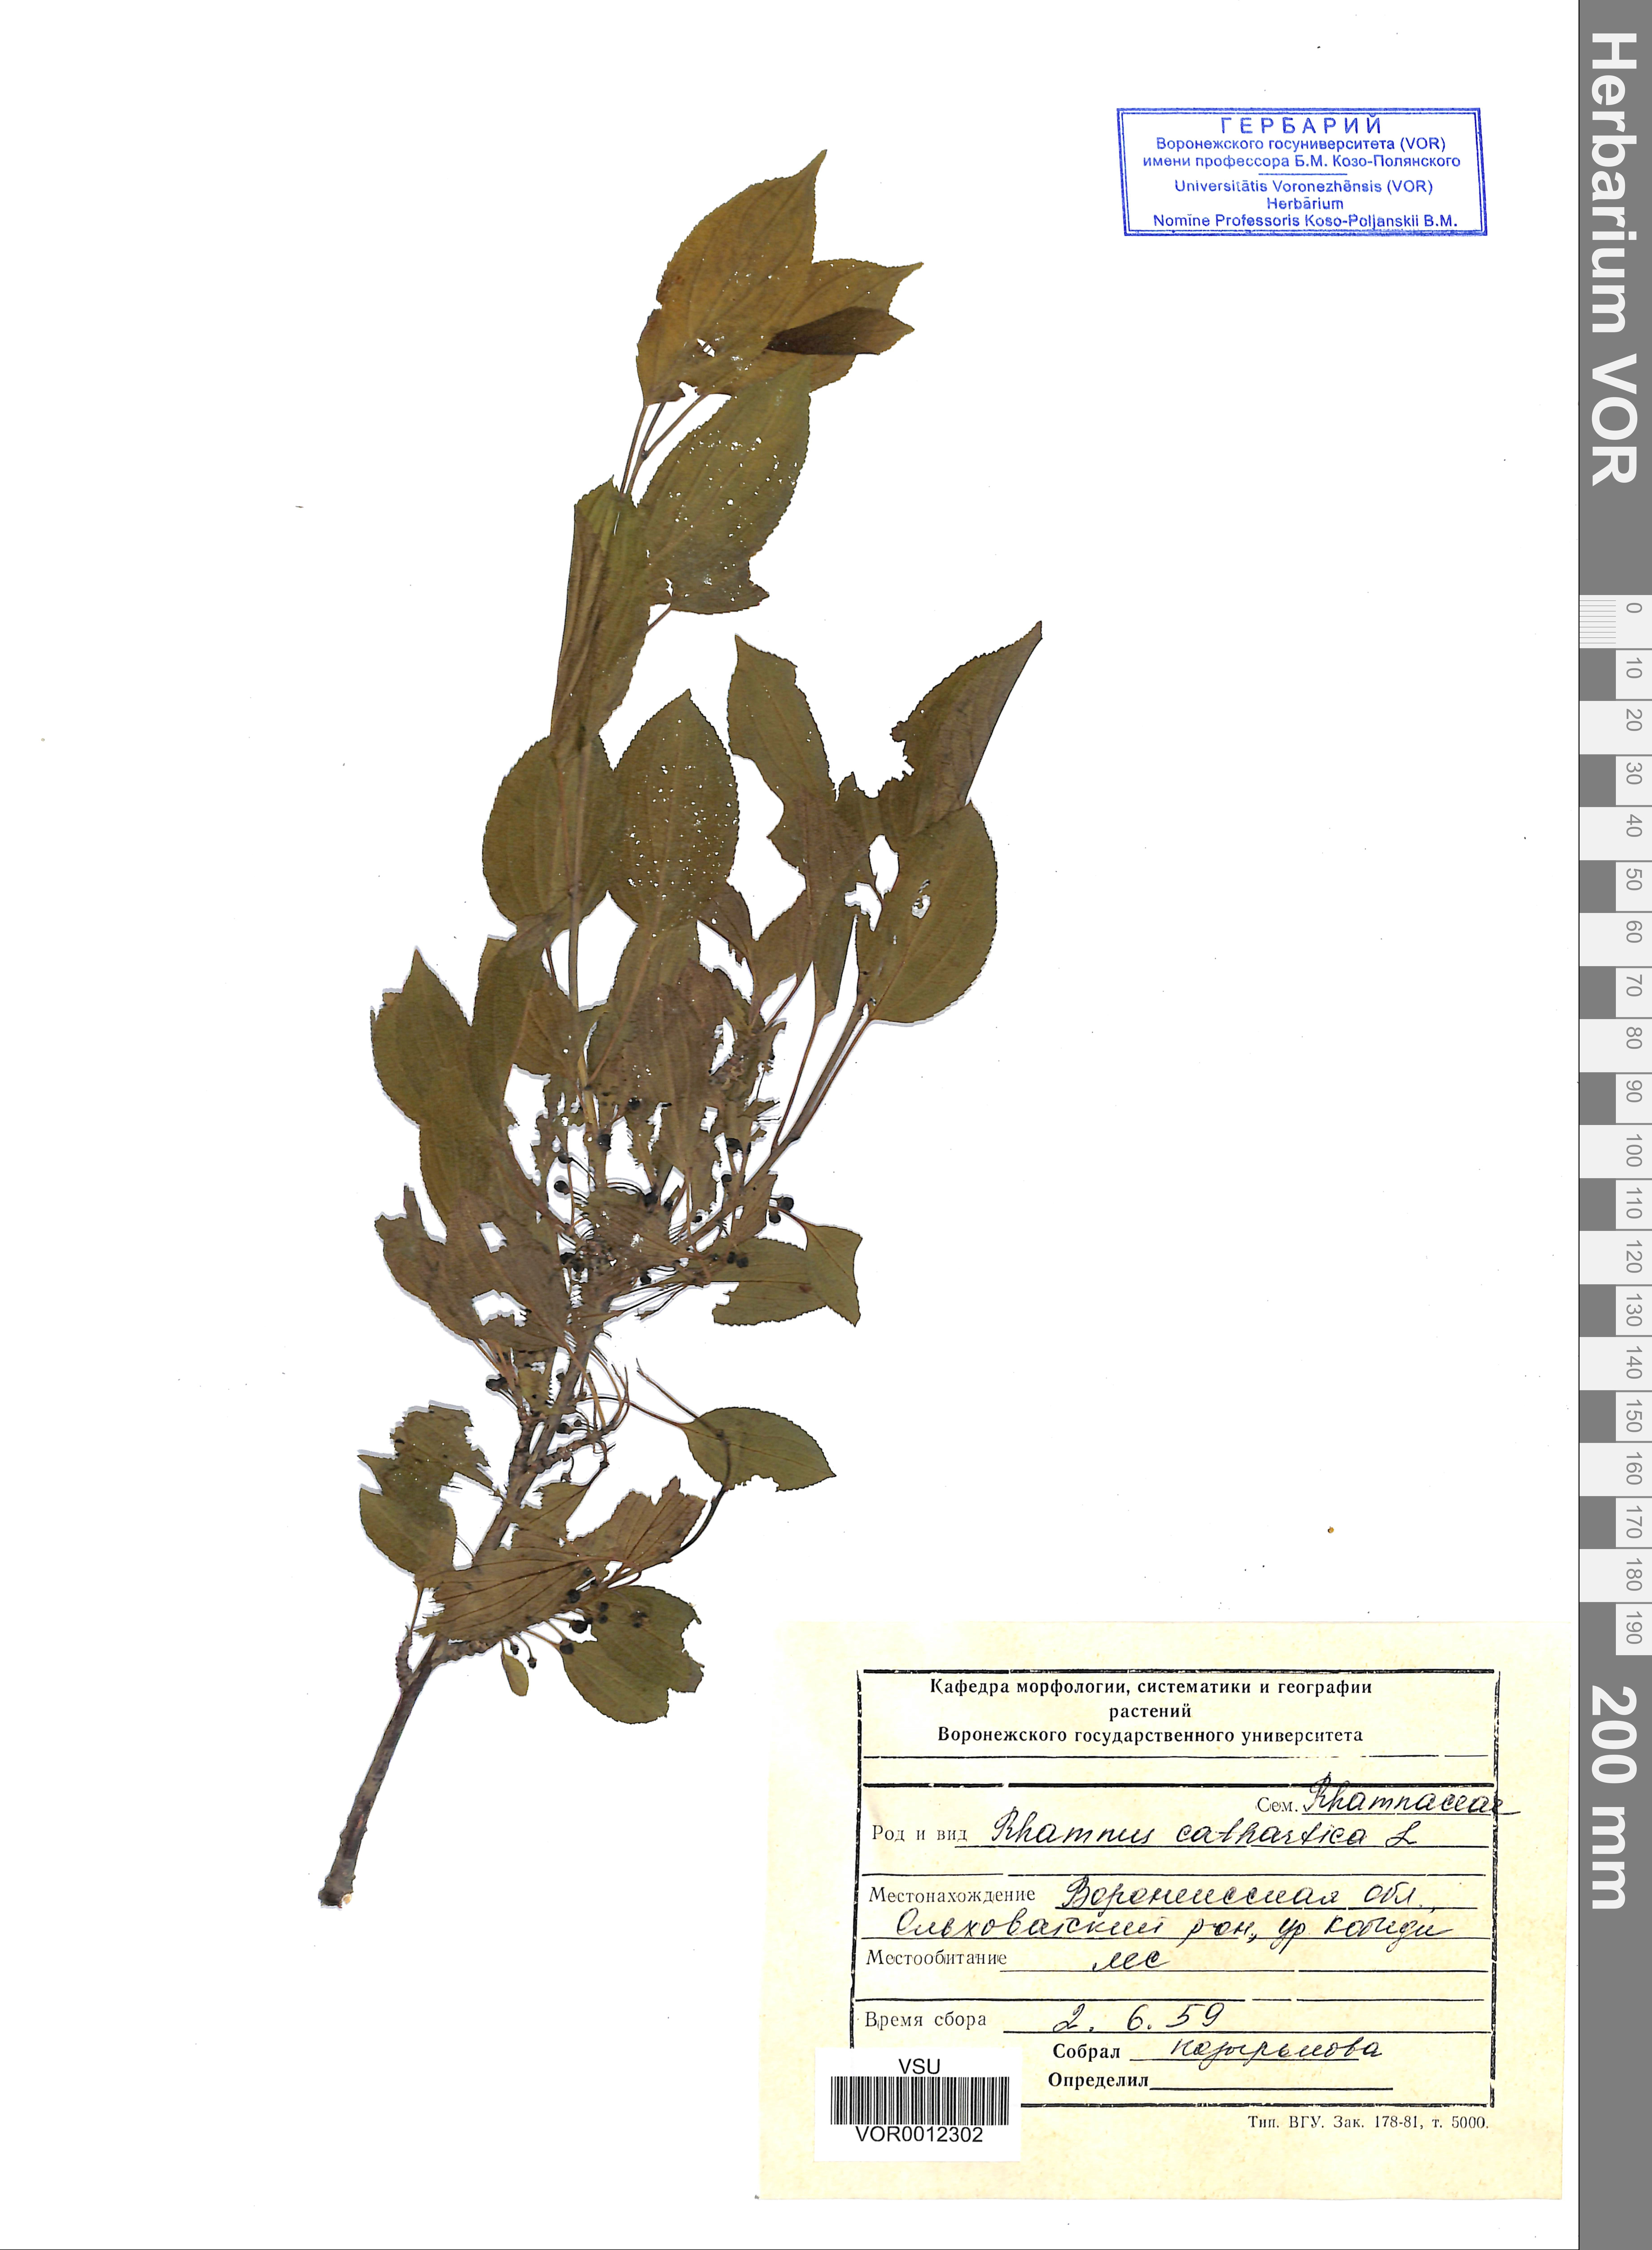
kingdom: Plantae
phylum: Tracheophyta
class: Magnoliopsida
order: Rosales
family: Rhamnaceae
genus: Rhamnus
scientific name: Rhamnus cathartica
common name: Common buckthorn
